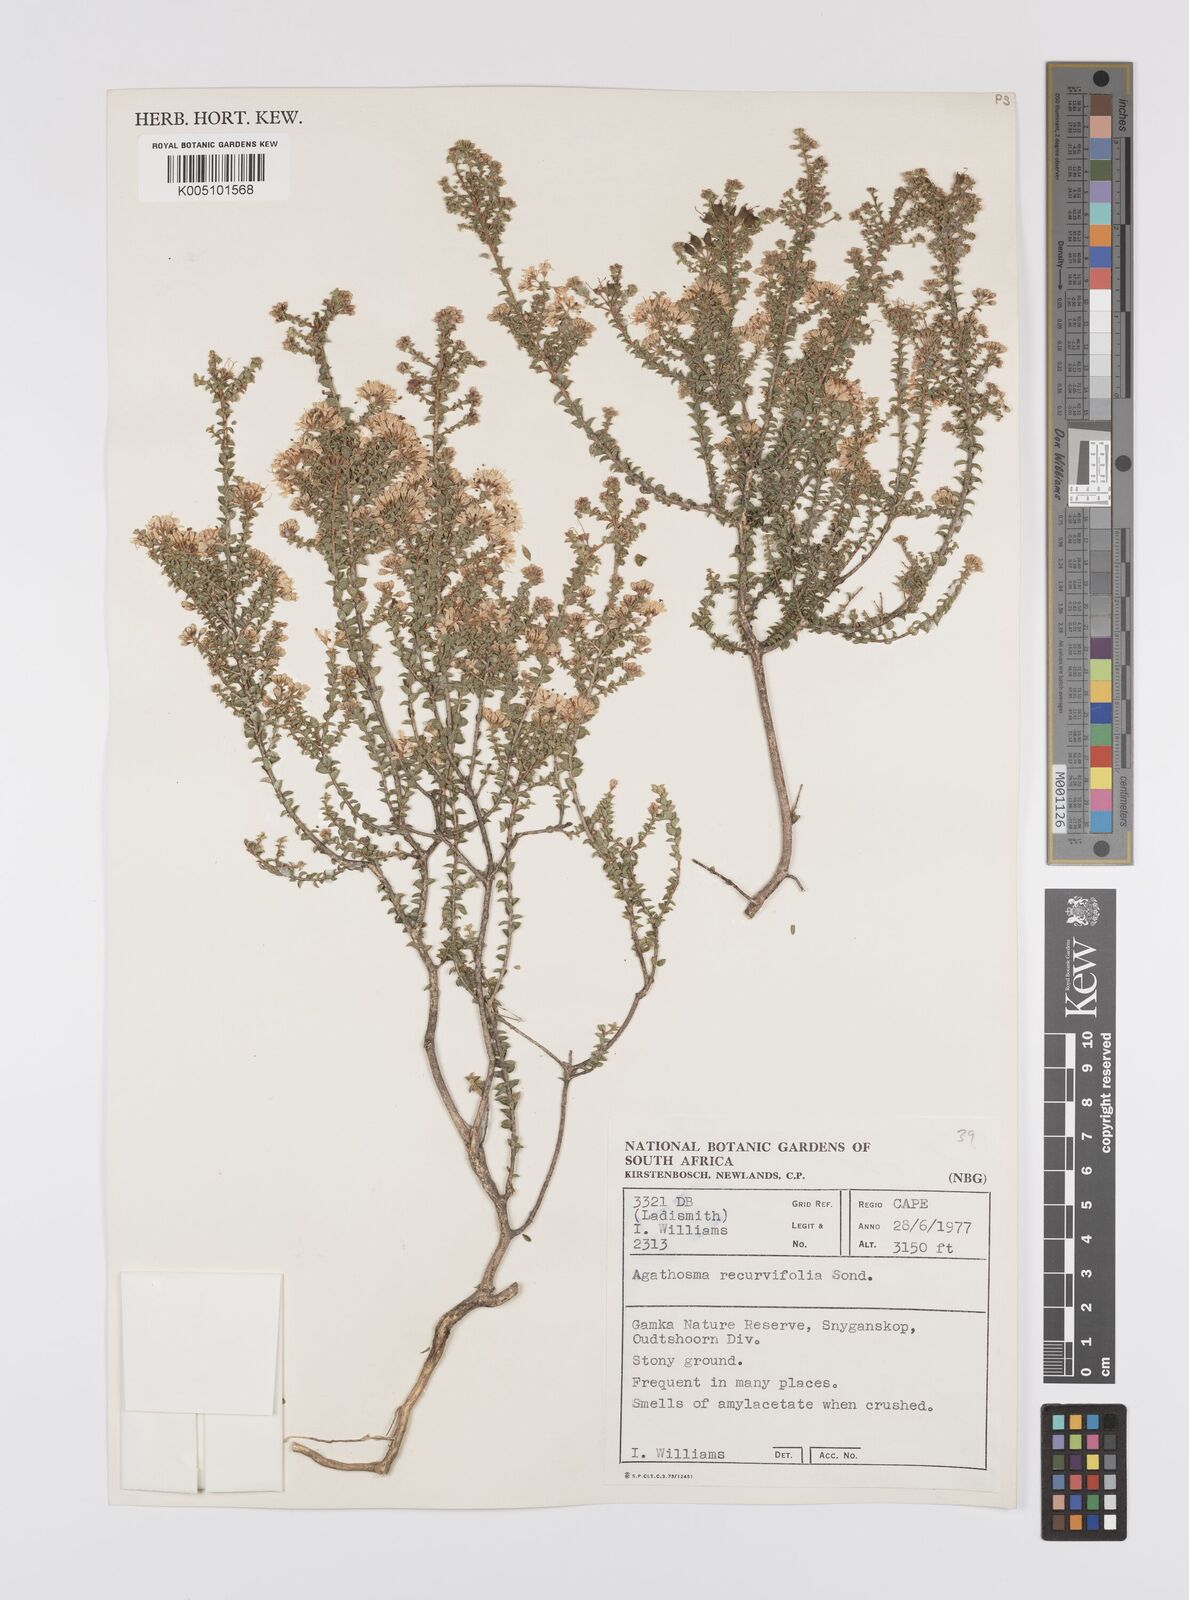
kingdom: Plantae
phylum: Tracheophyta
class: Magnoliopsida
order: Sapindales
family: Rutaceae
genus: Agathosma
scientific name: Agathosma recurvifolia
